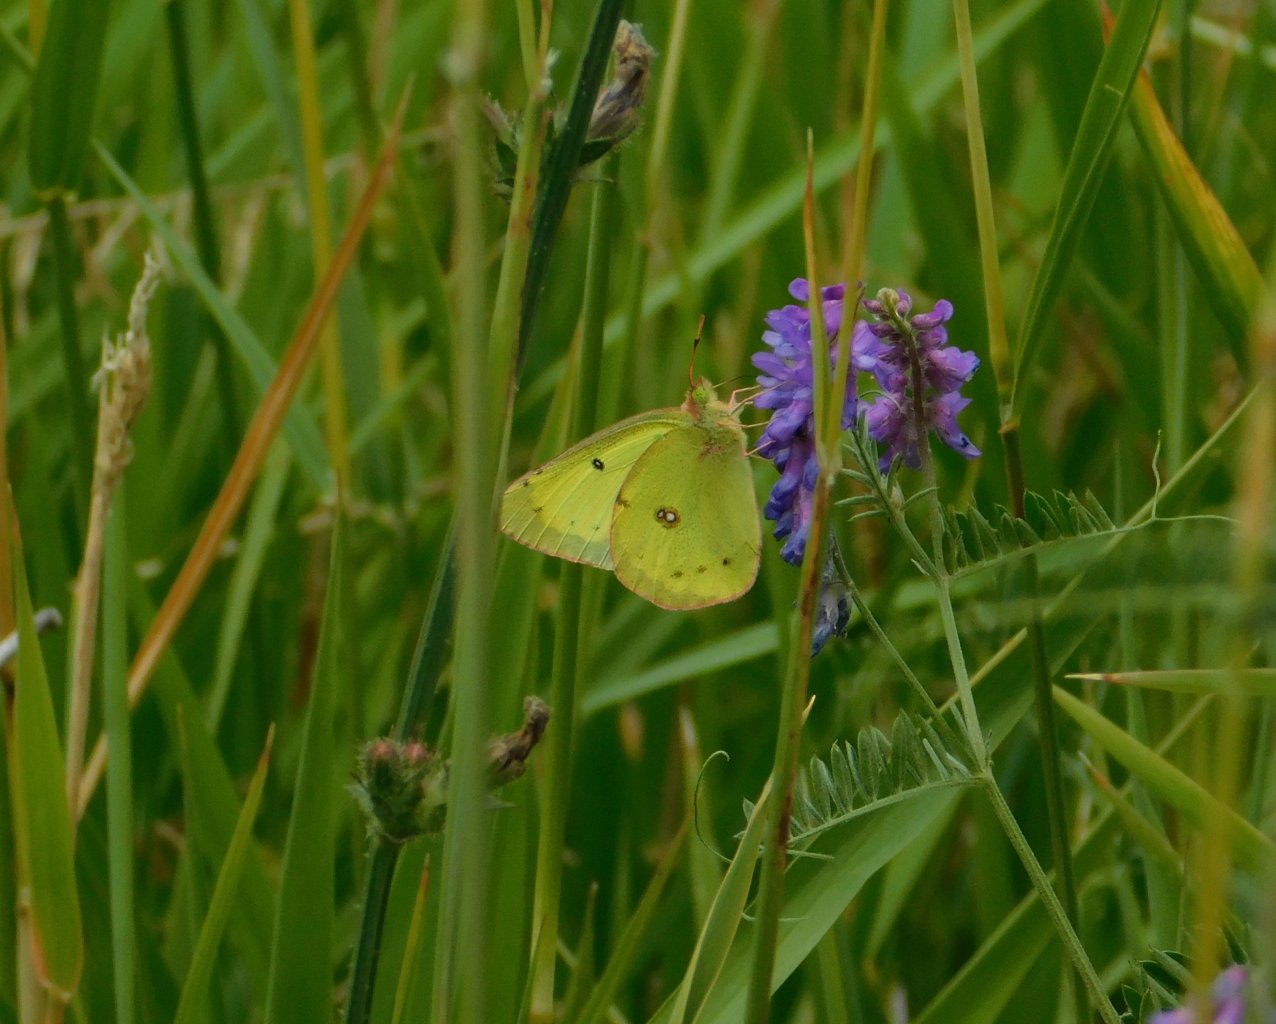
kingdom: Animalia
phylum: Arthropoda
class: Insecta
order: Lepidoptera
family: Pieridae
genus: Colias
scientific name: Colias philodice
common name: Clouded Sulphur
